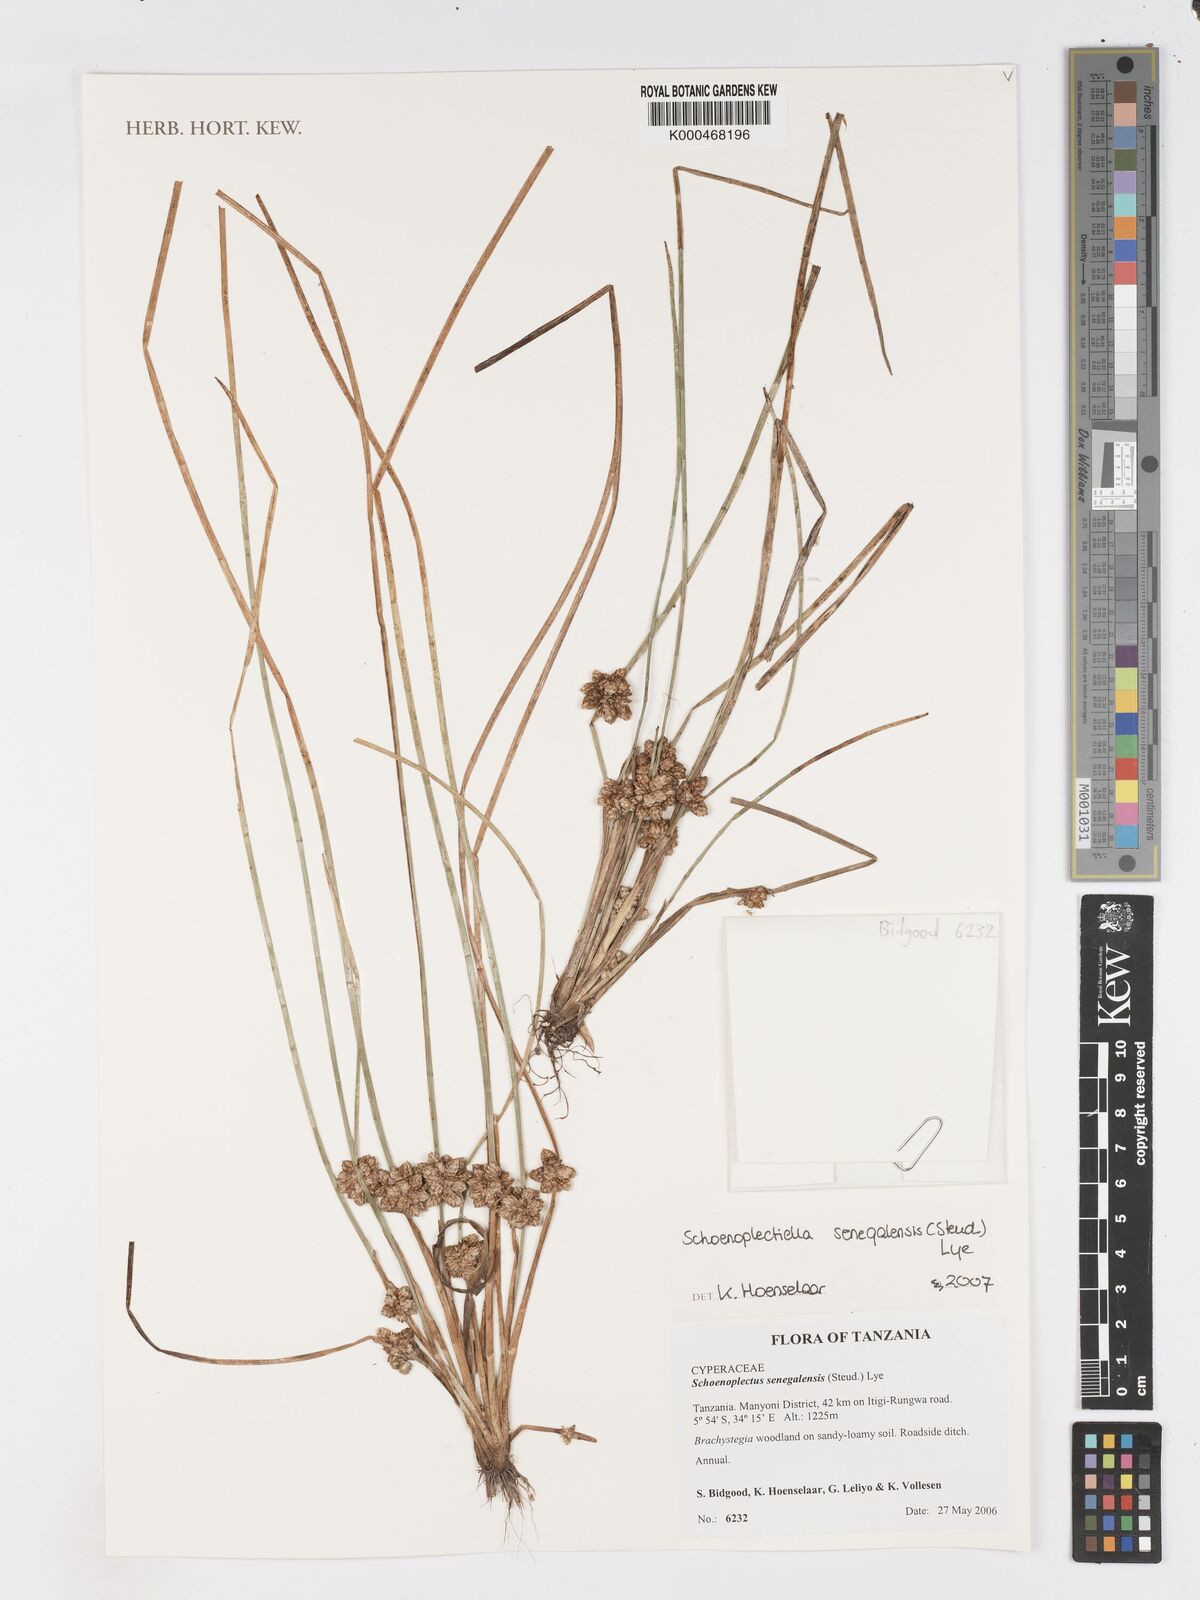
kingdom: Plantae
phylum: Tracheophyta
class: Liliopsida
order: Poales
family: Cyperaceae
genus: Schoenoplectus
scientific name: Schoenoplectus
